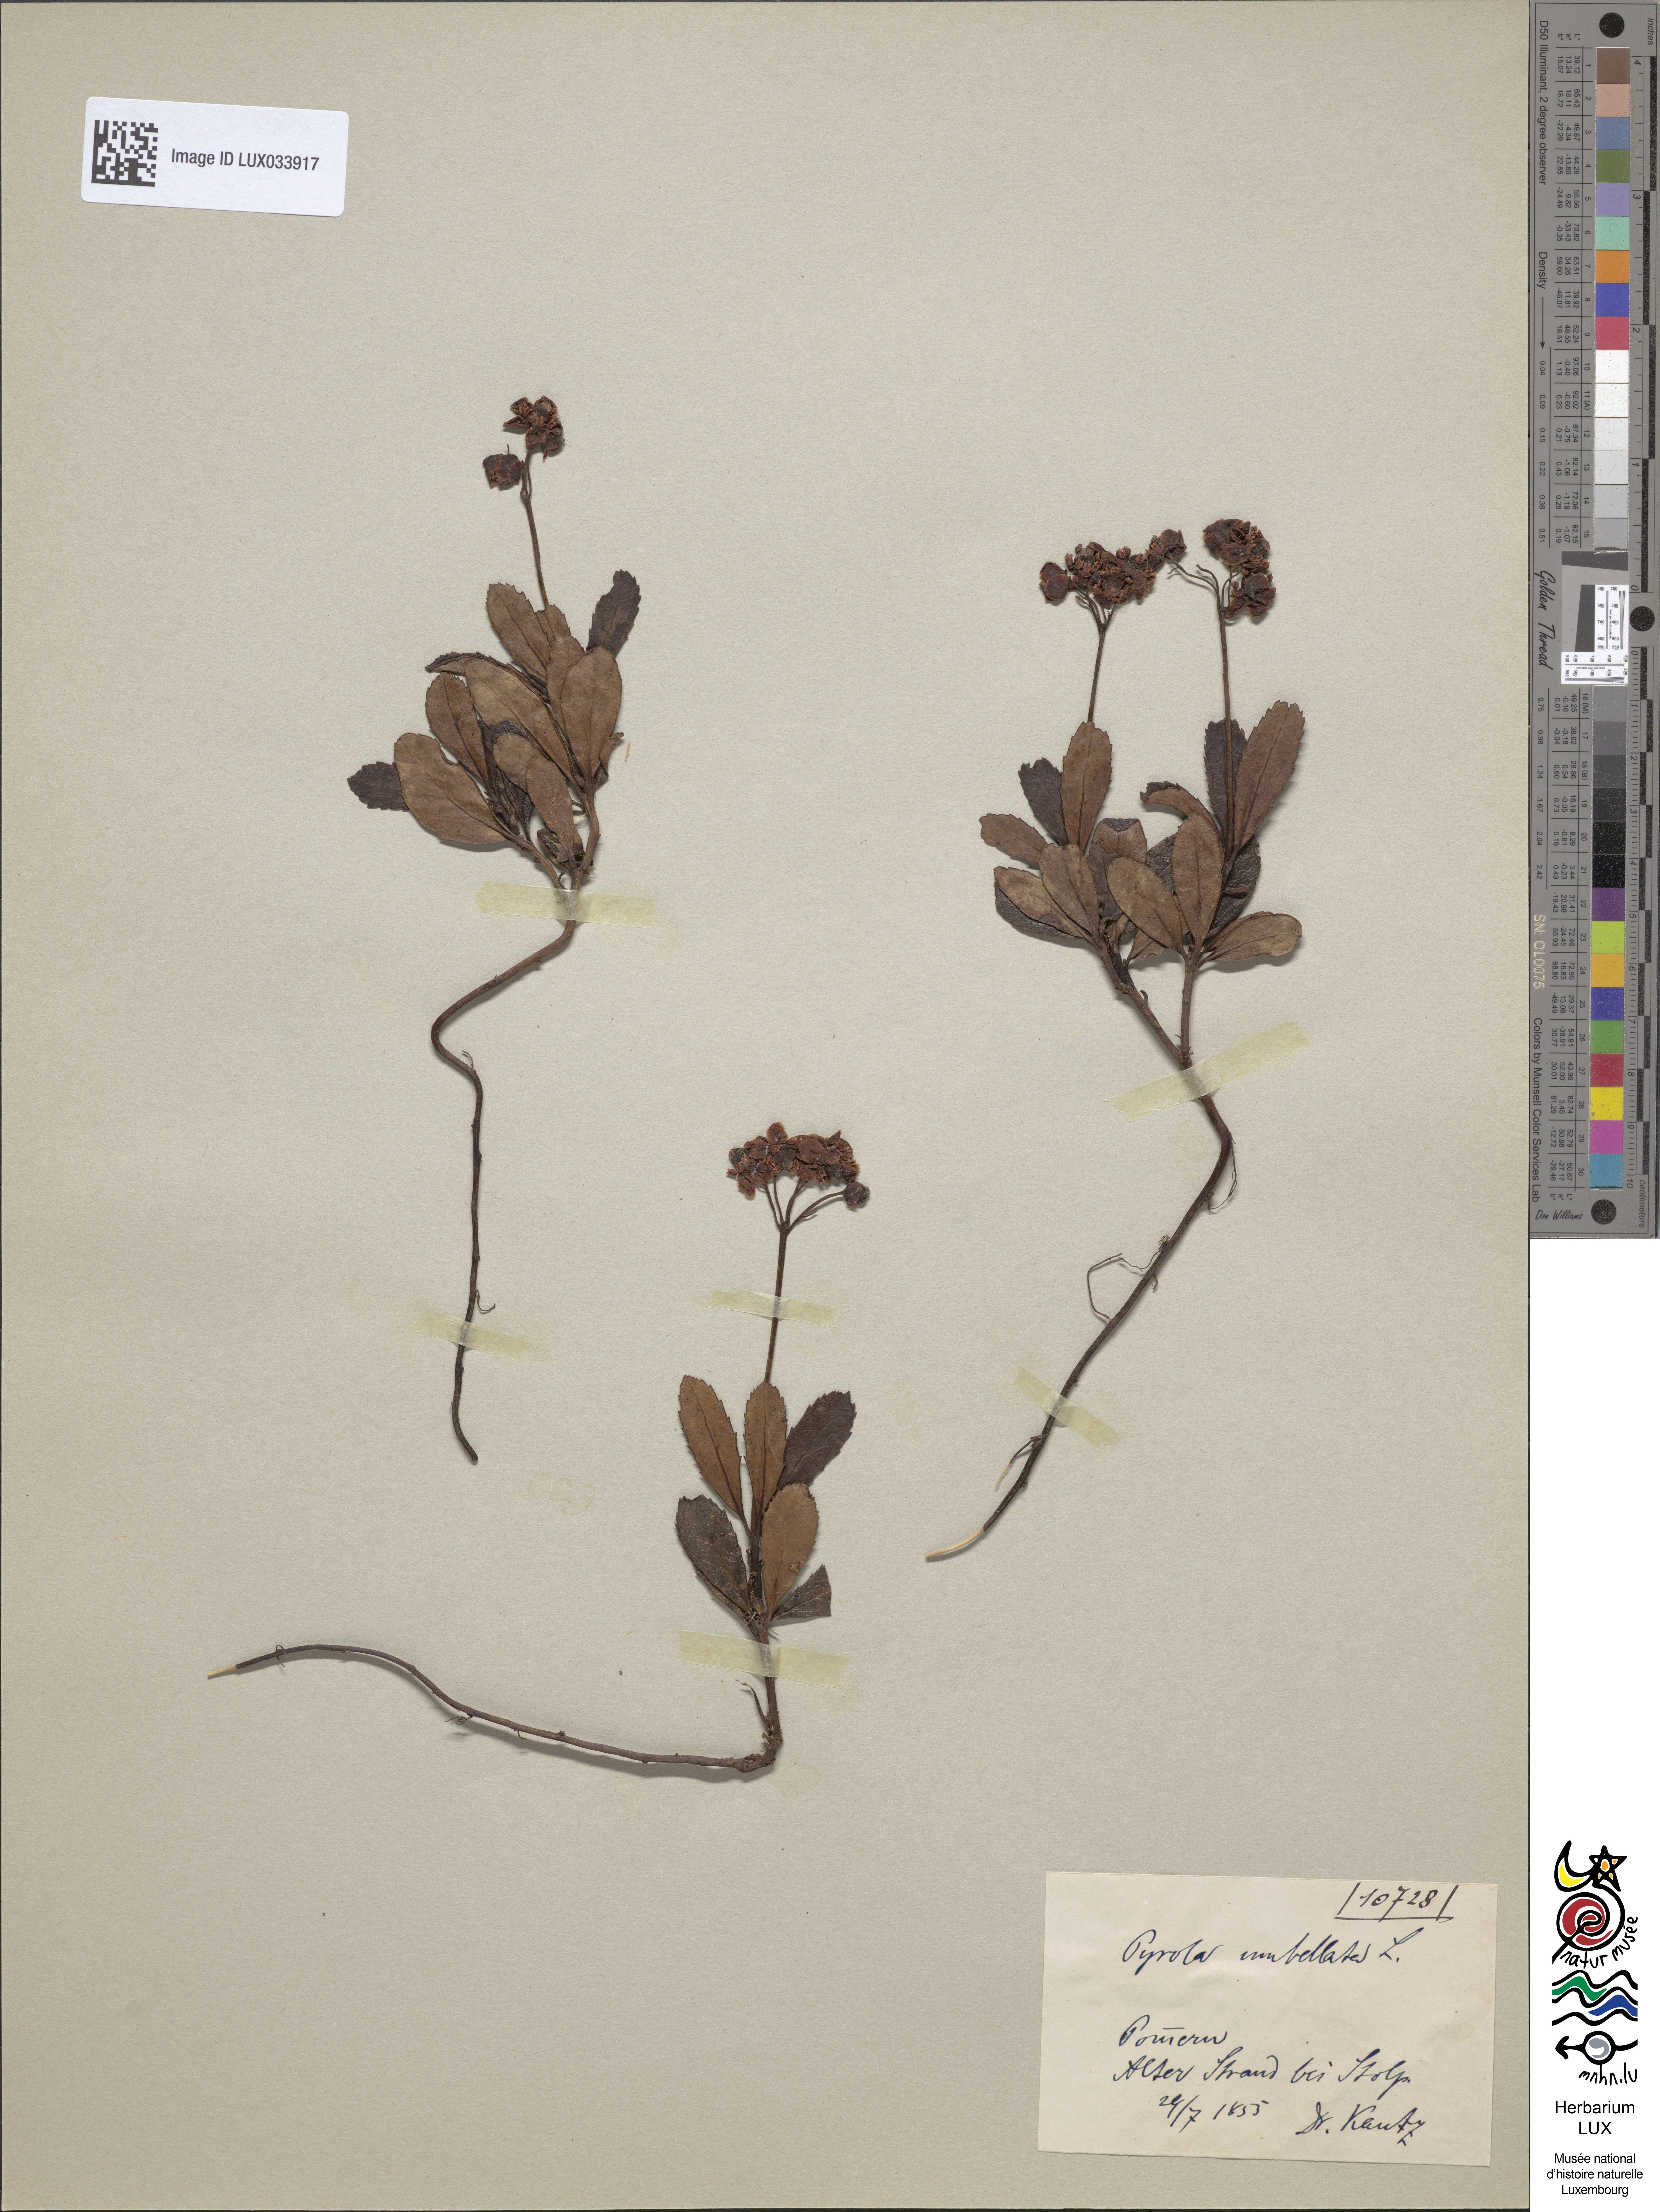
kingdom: Plantae
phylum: Tracheophyta
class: Magnoliopsida
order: Ericales
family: Ericaceae
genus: Chimaphila
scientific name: Chimaphila umbellata
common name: Pipsissewa
